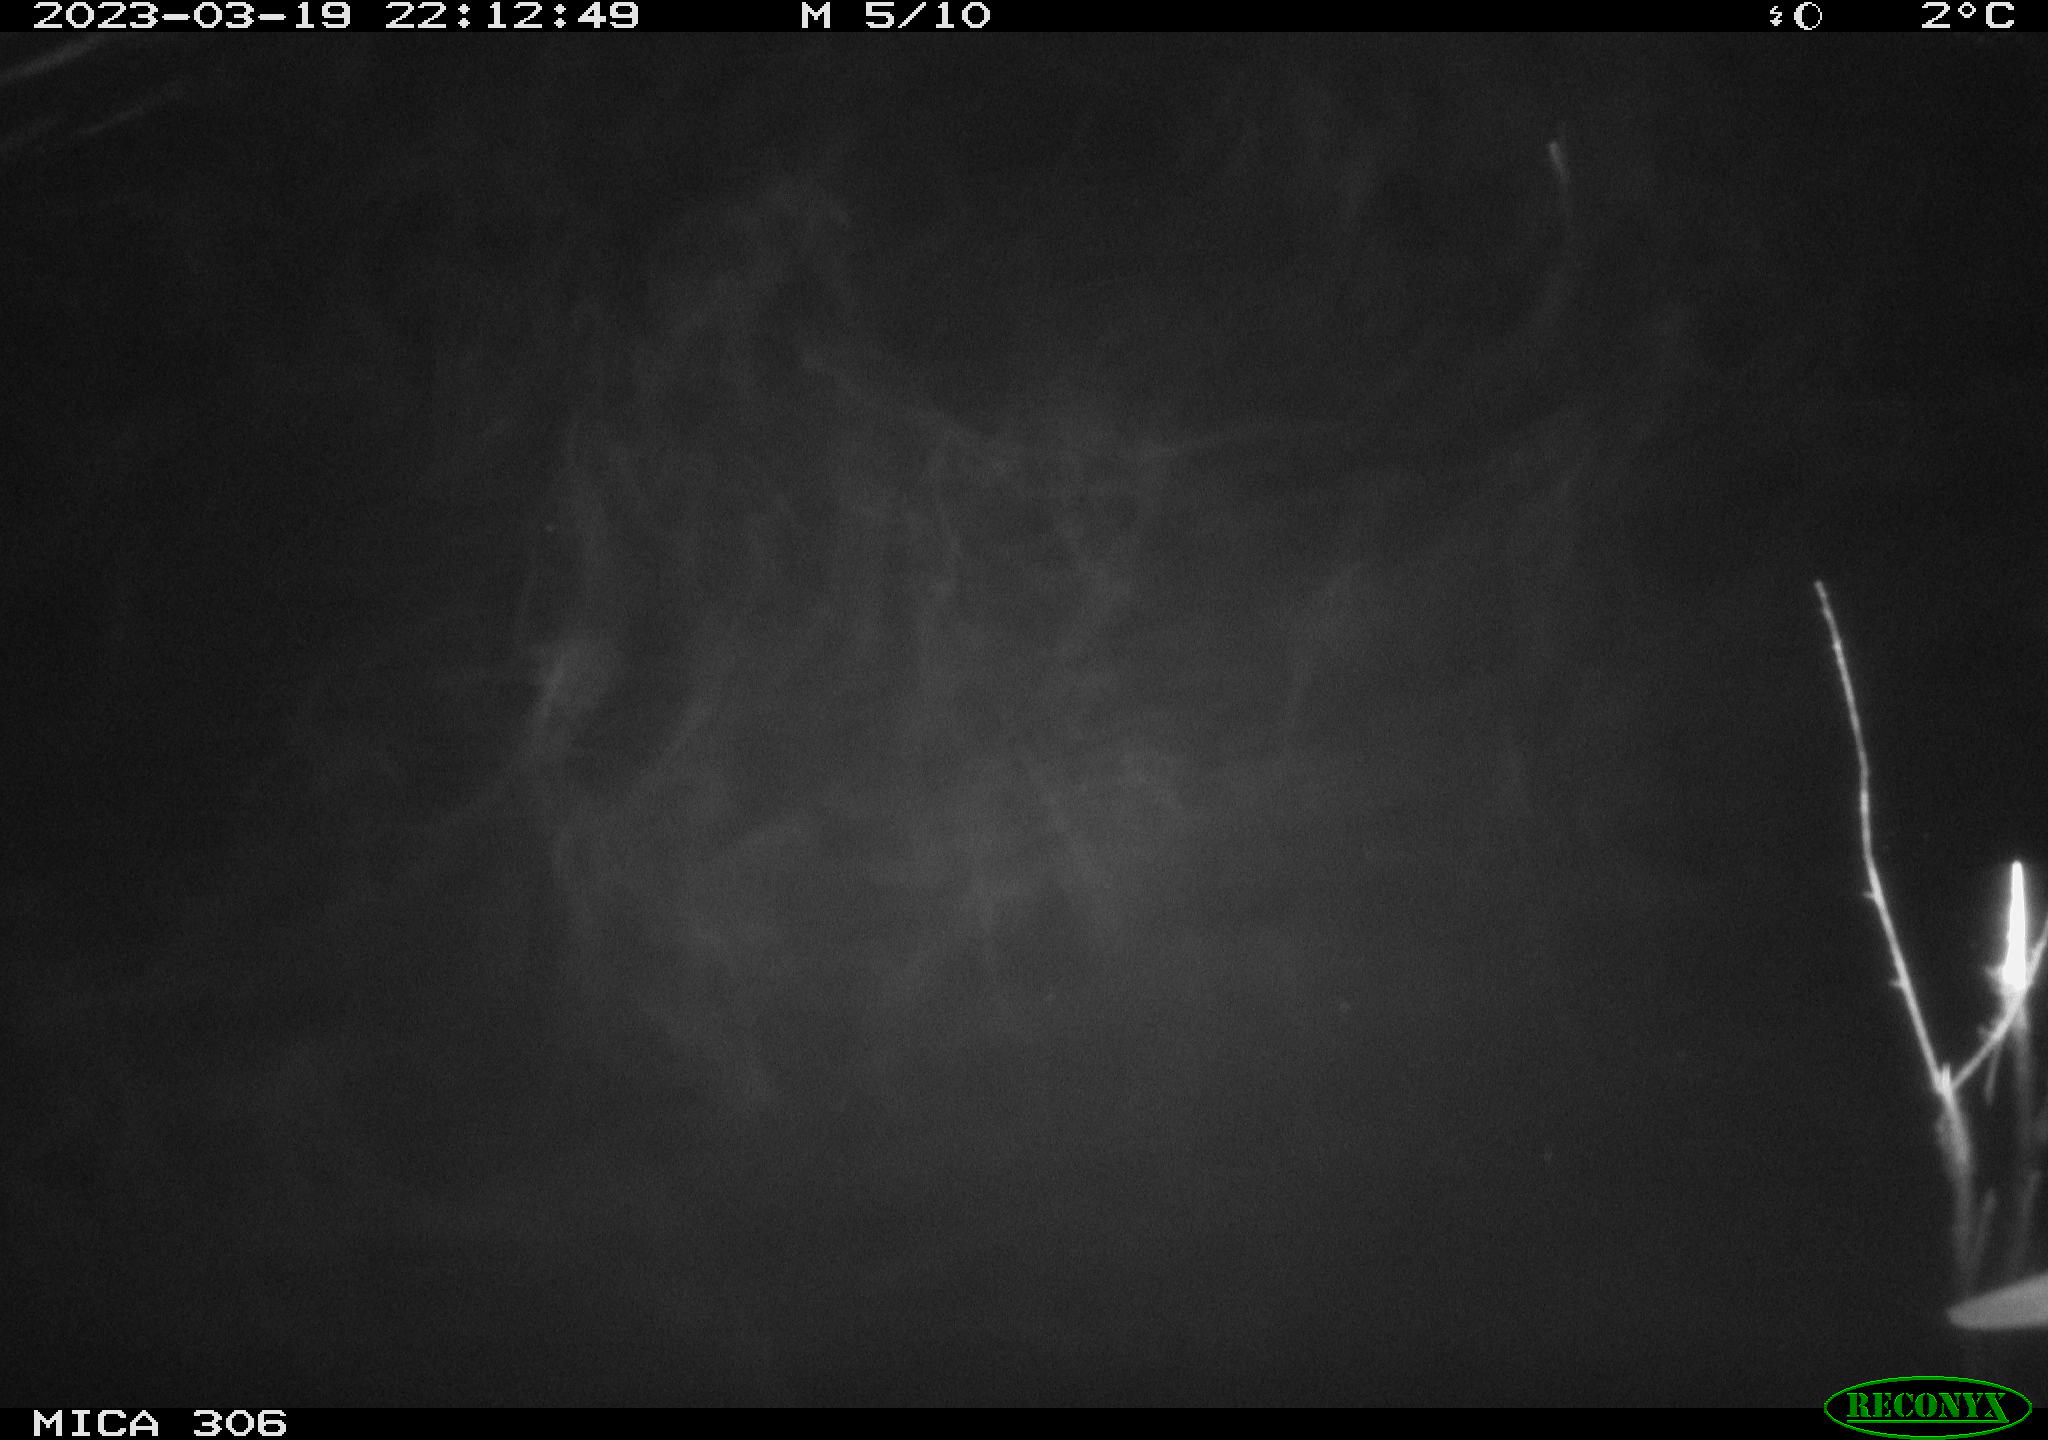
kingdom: Animalia
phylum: Chordata
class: Mammalia
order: Rodentia
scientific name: Rodentia
